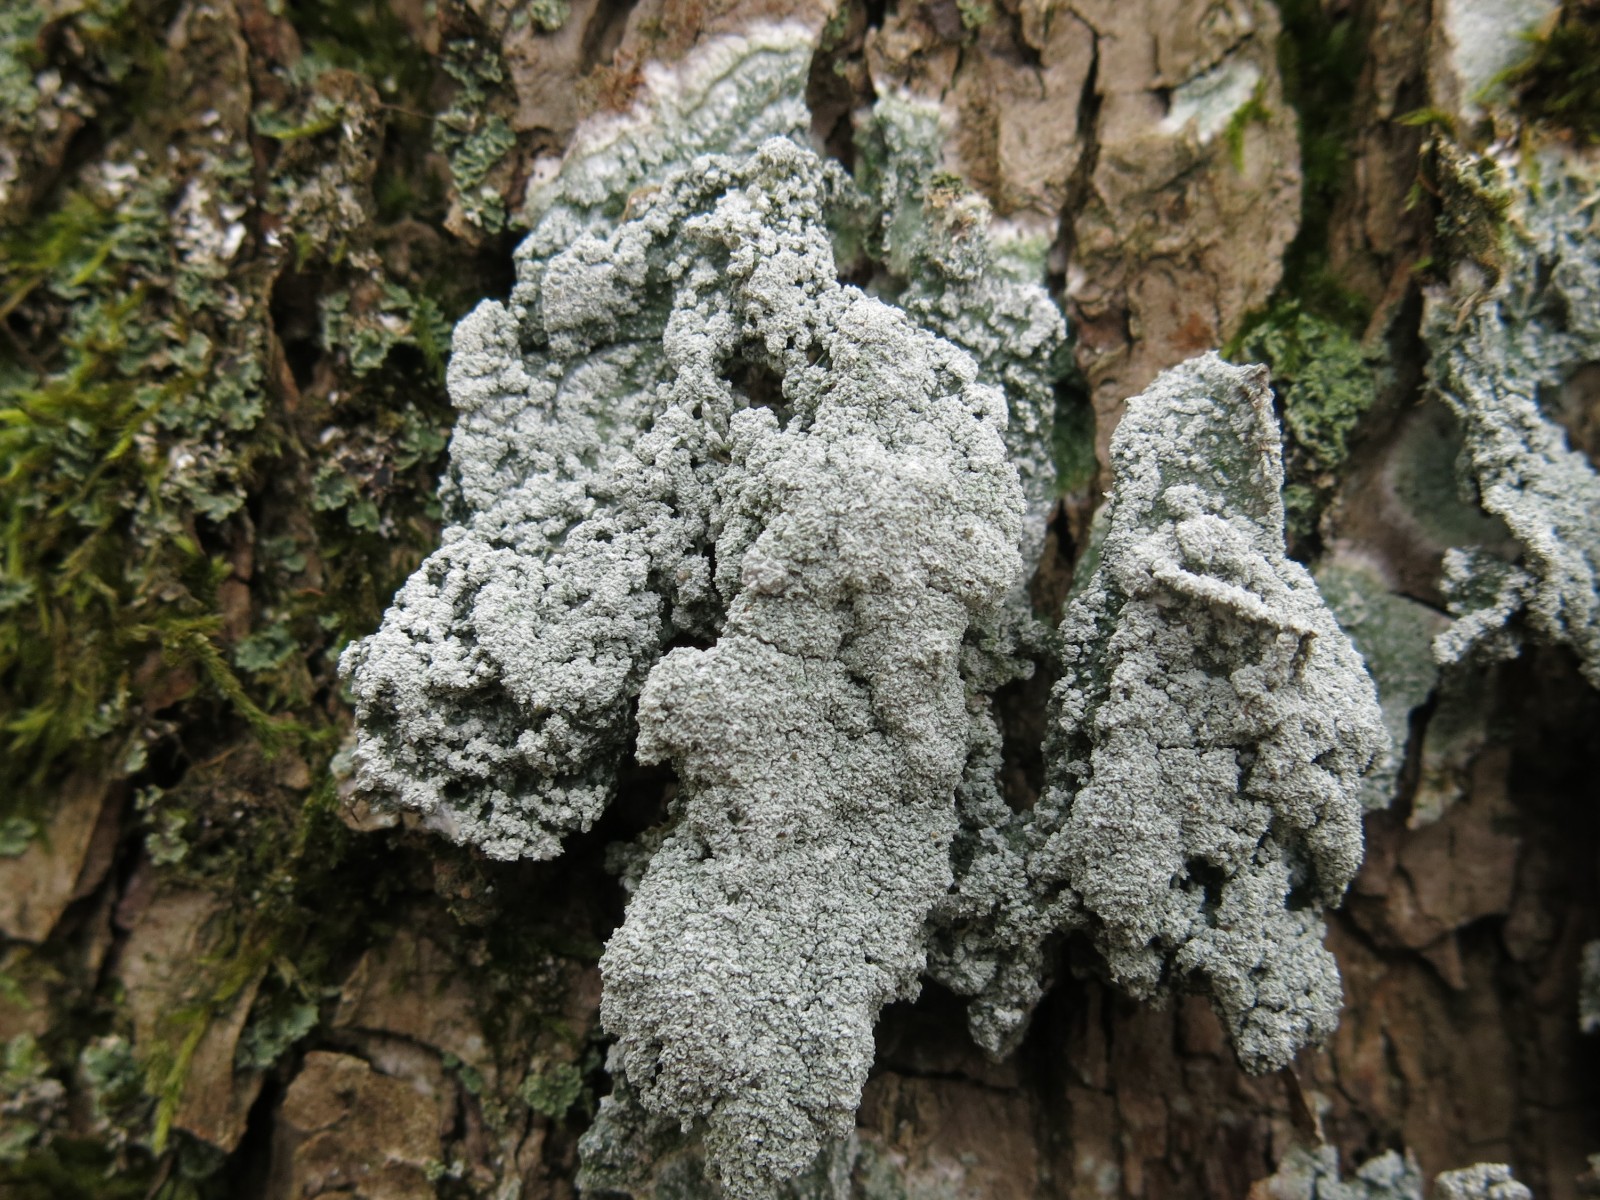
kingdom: Fungi
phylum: Ascomycota
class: Lecanoromycetes
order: Pertusariales
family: Pertusariaceae
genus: Lepra
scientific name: Lepra albescens
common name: hvidmelet prikvortelav
